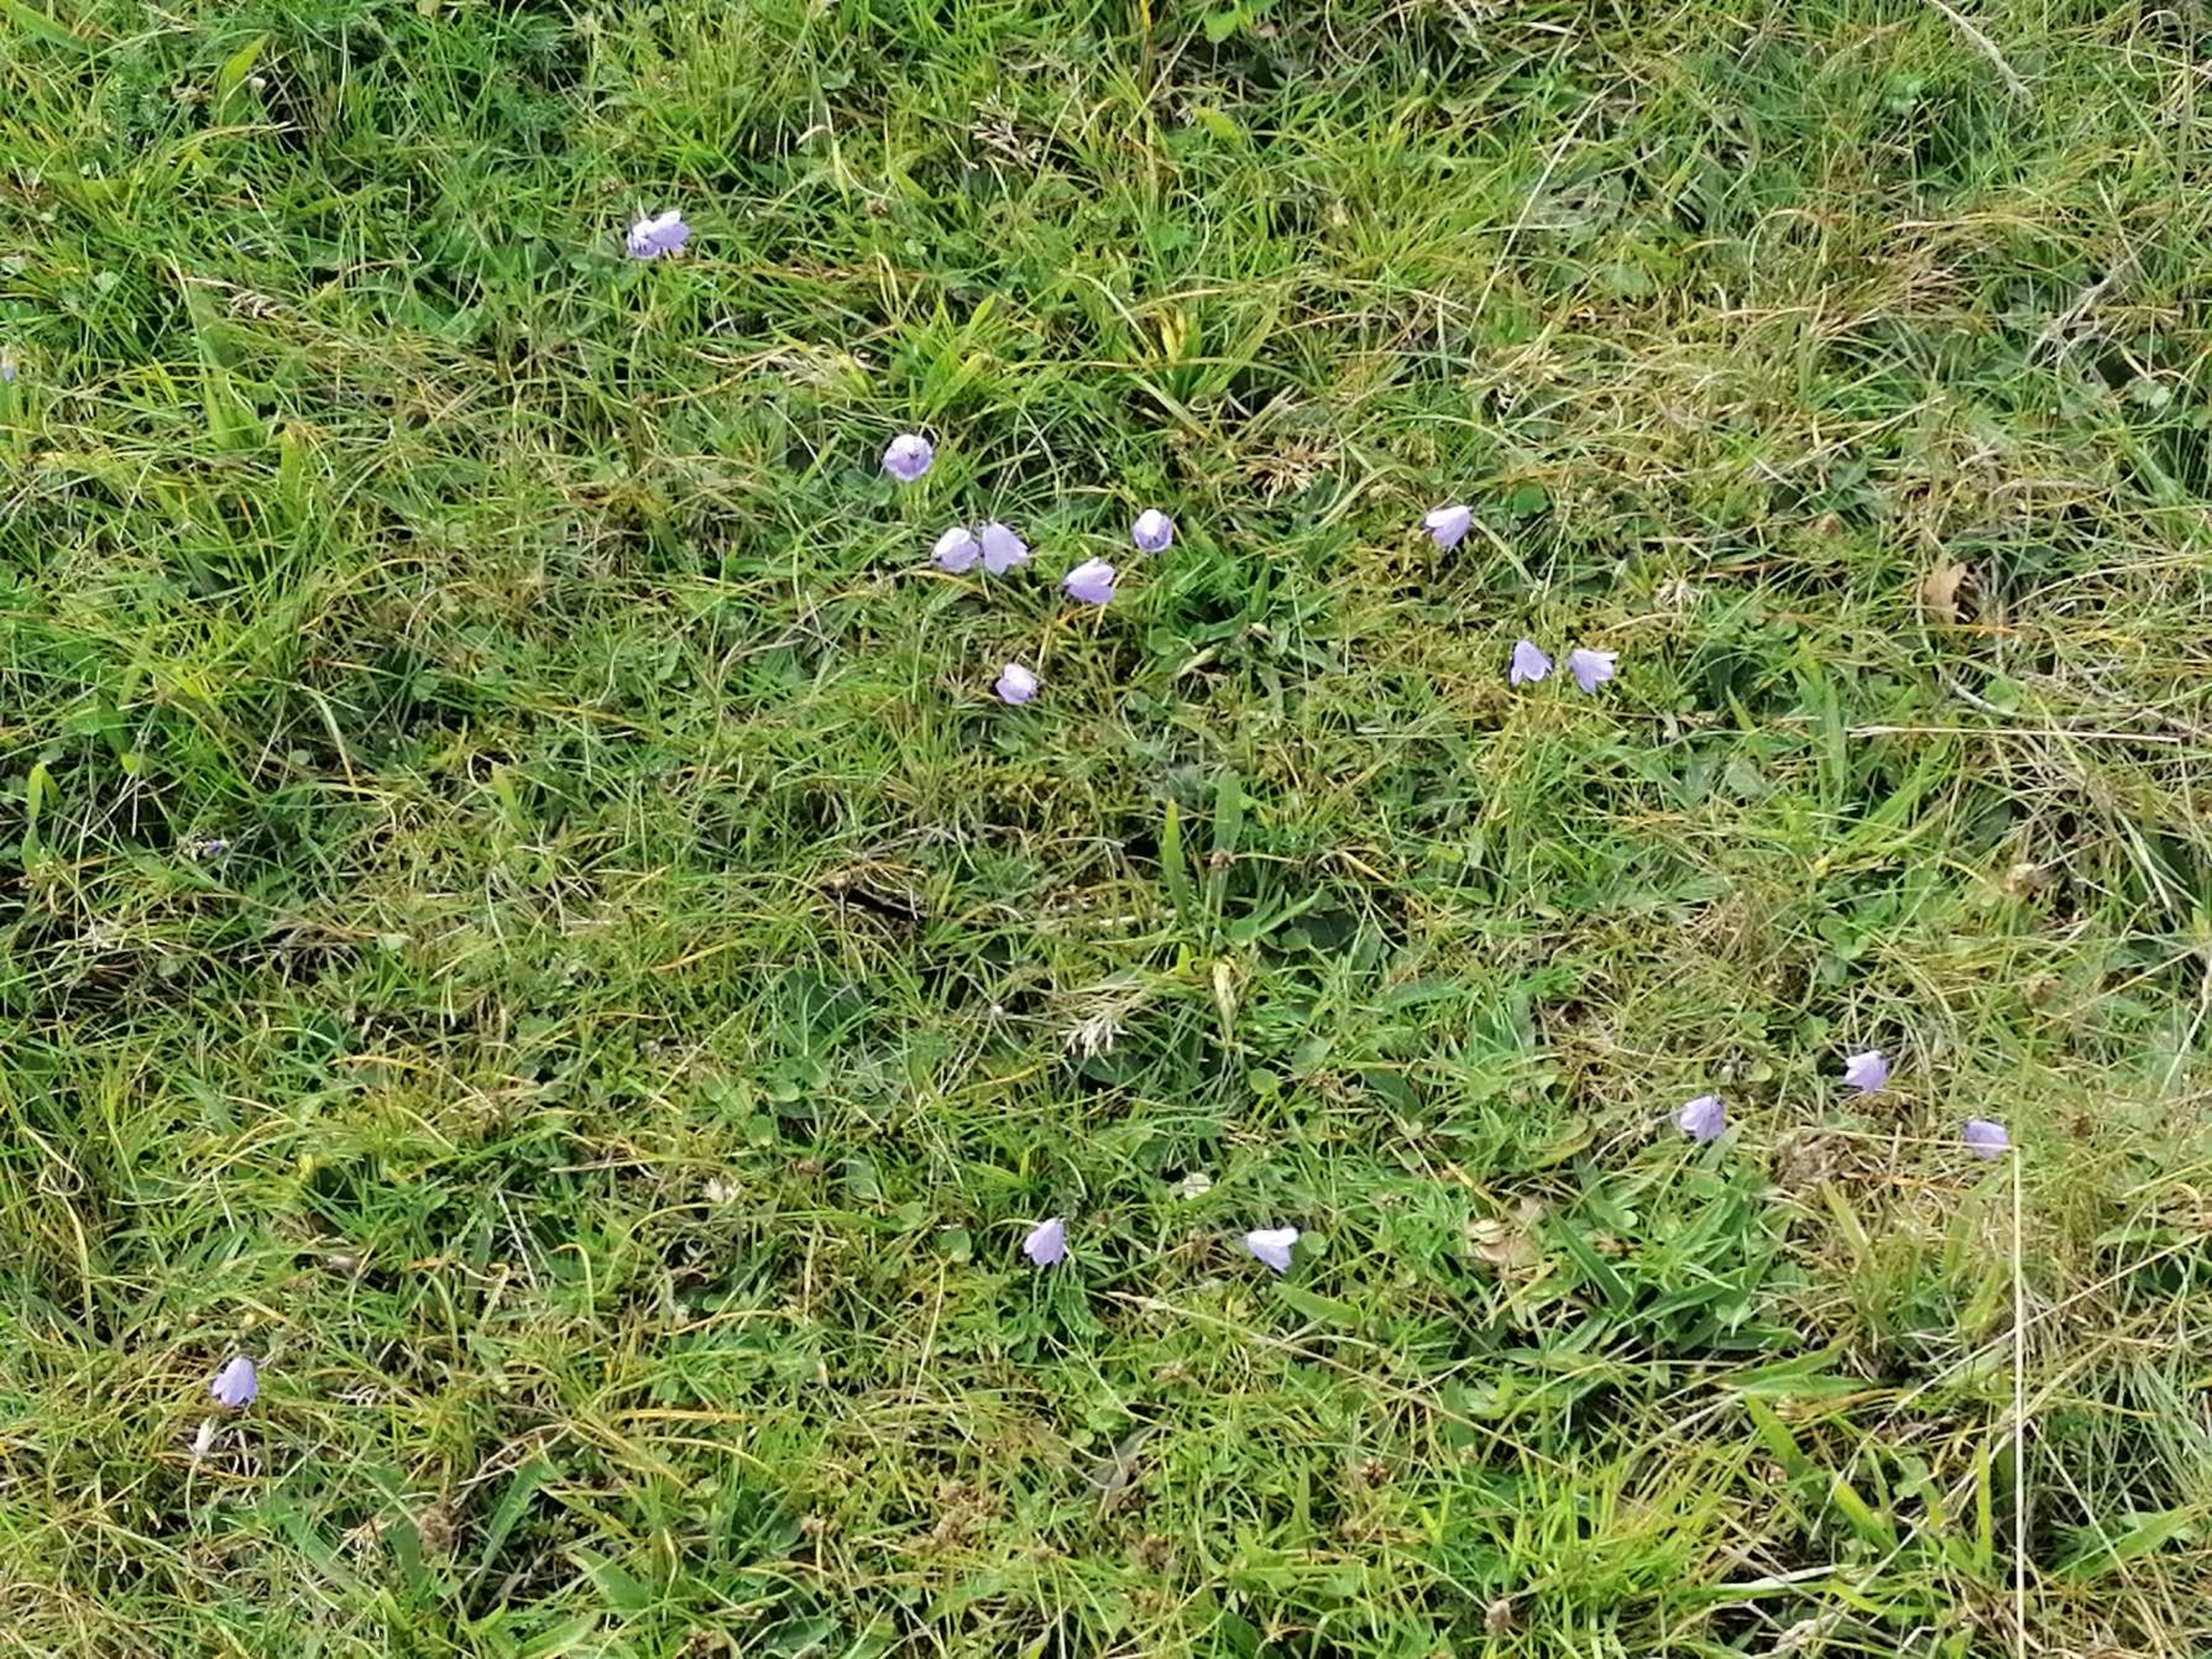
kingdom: Plantae
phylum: Tracheophyta
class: Magnoliopsida
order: Asterales
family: Campanulaceae
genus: Campanula
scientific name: Campanula rotundifolia
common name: Liden klokke
